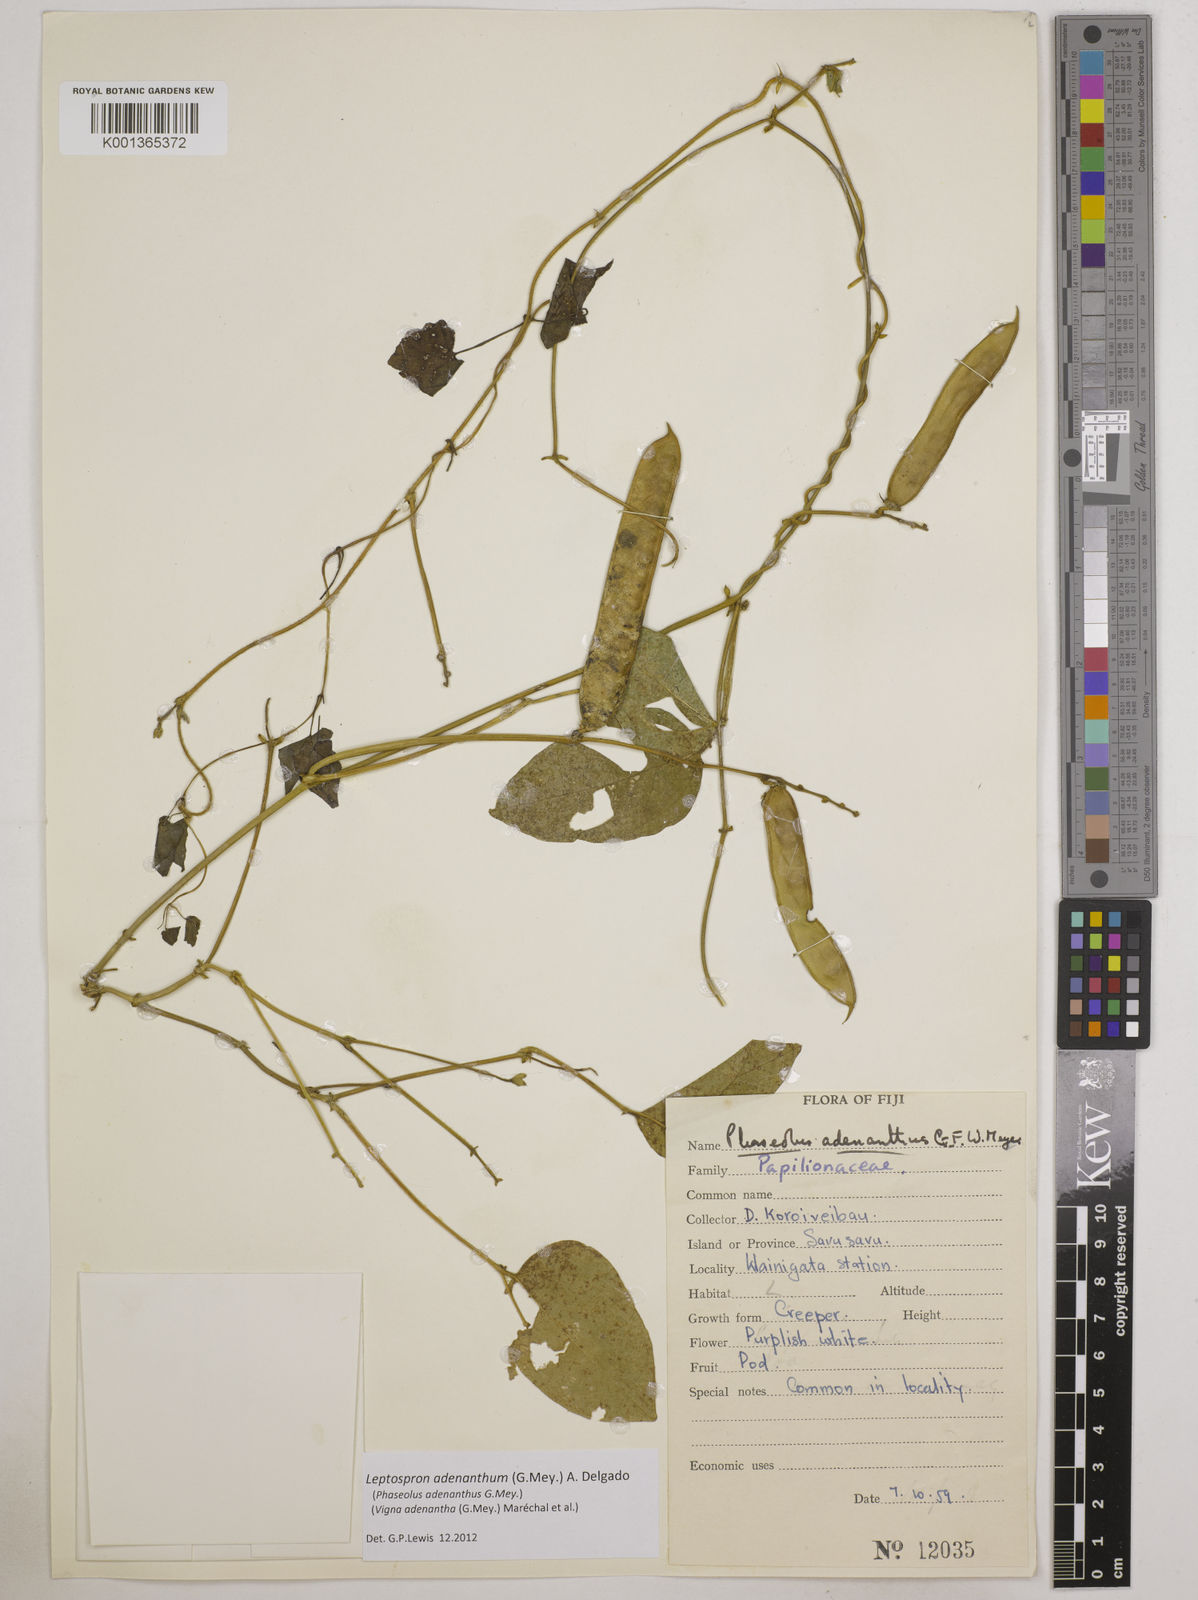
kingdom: Plantae
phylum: Tracheophyta
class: Magnoliopsida
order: Fabales
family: Fabaceae
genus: Leptospron
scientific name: Leptospron adenanthum
